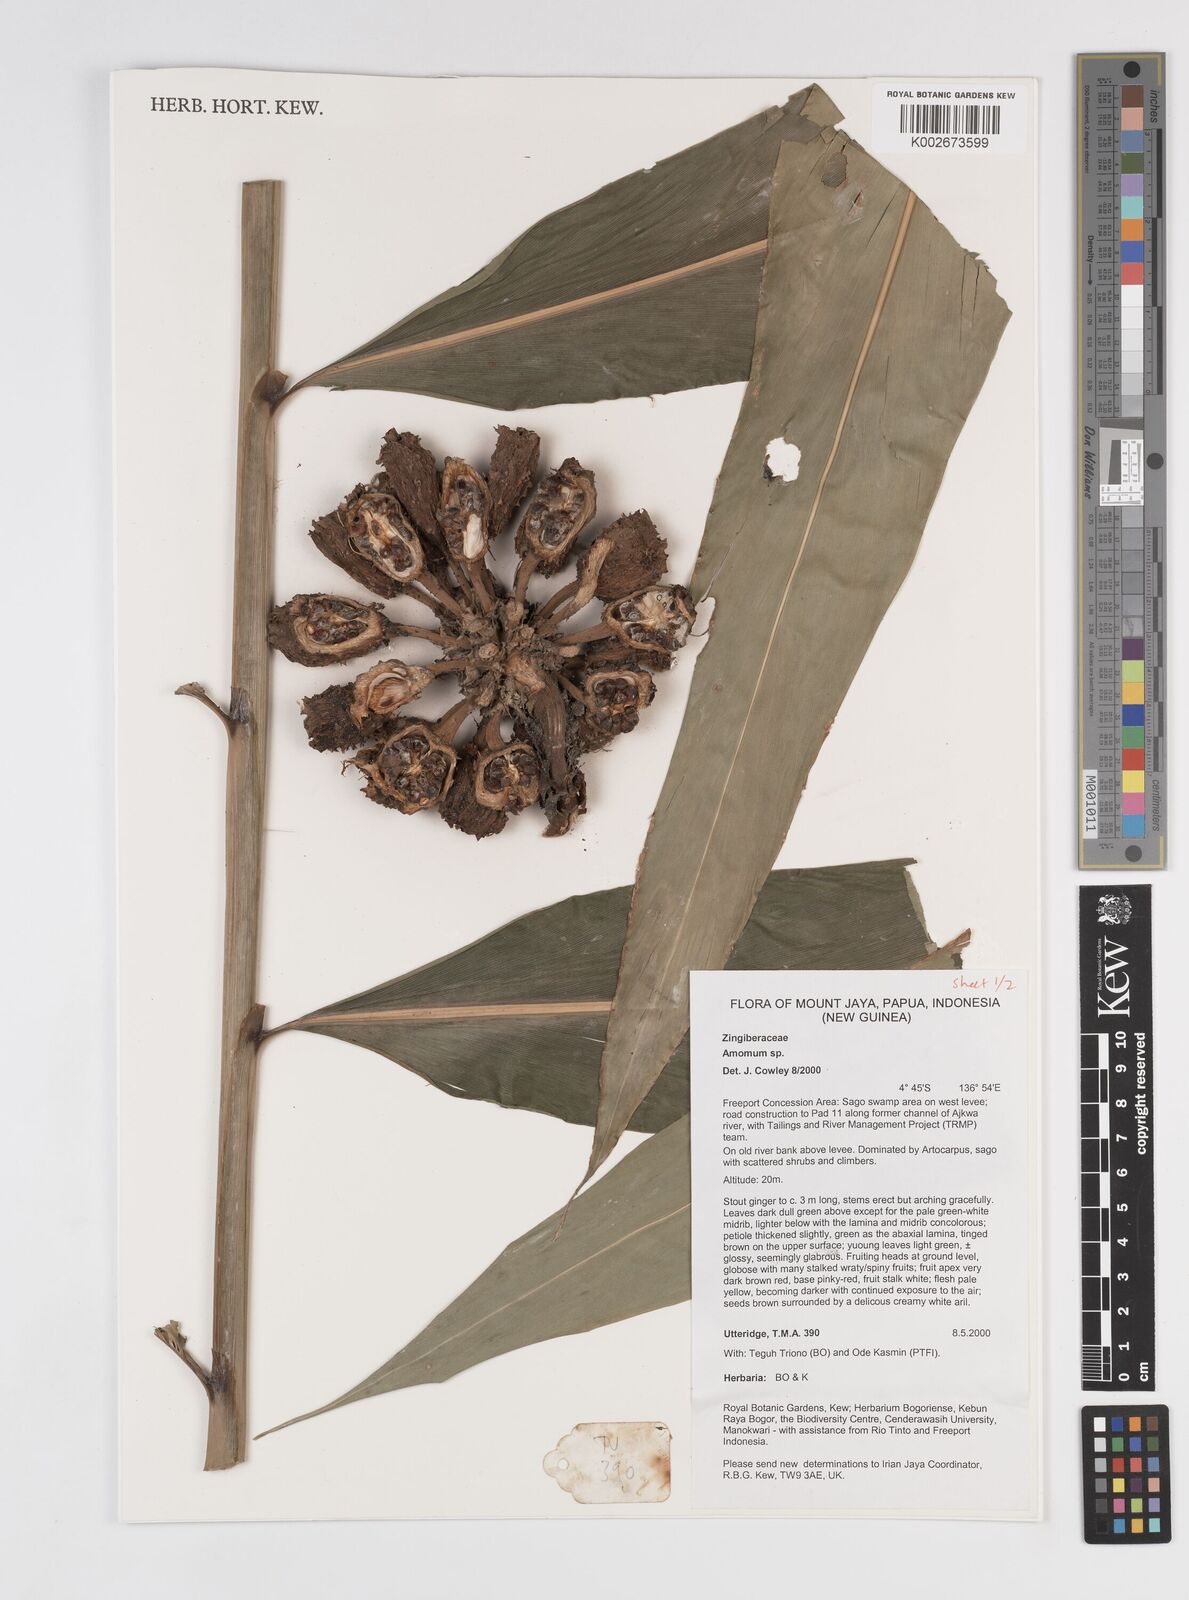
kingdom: Plantae
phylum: Tracheophyta
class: Liliopsida
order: Zingiberales
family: Zingiberaceae
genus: Amomum
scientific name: Amomum
